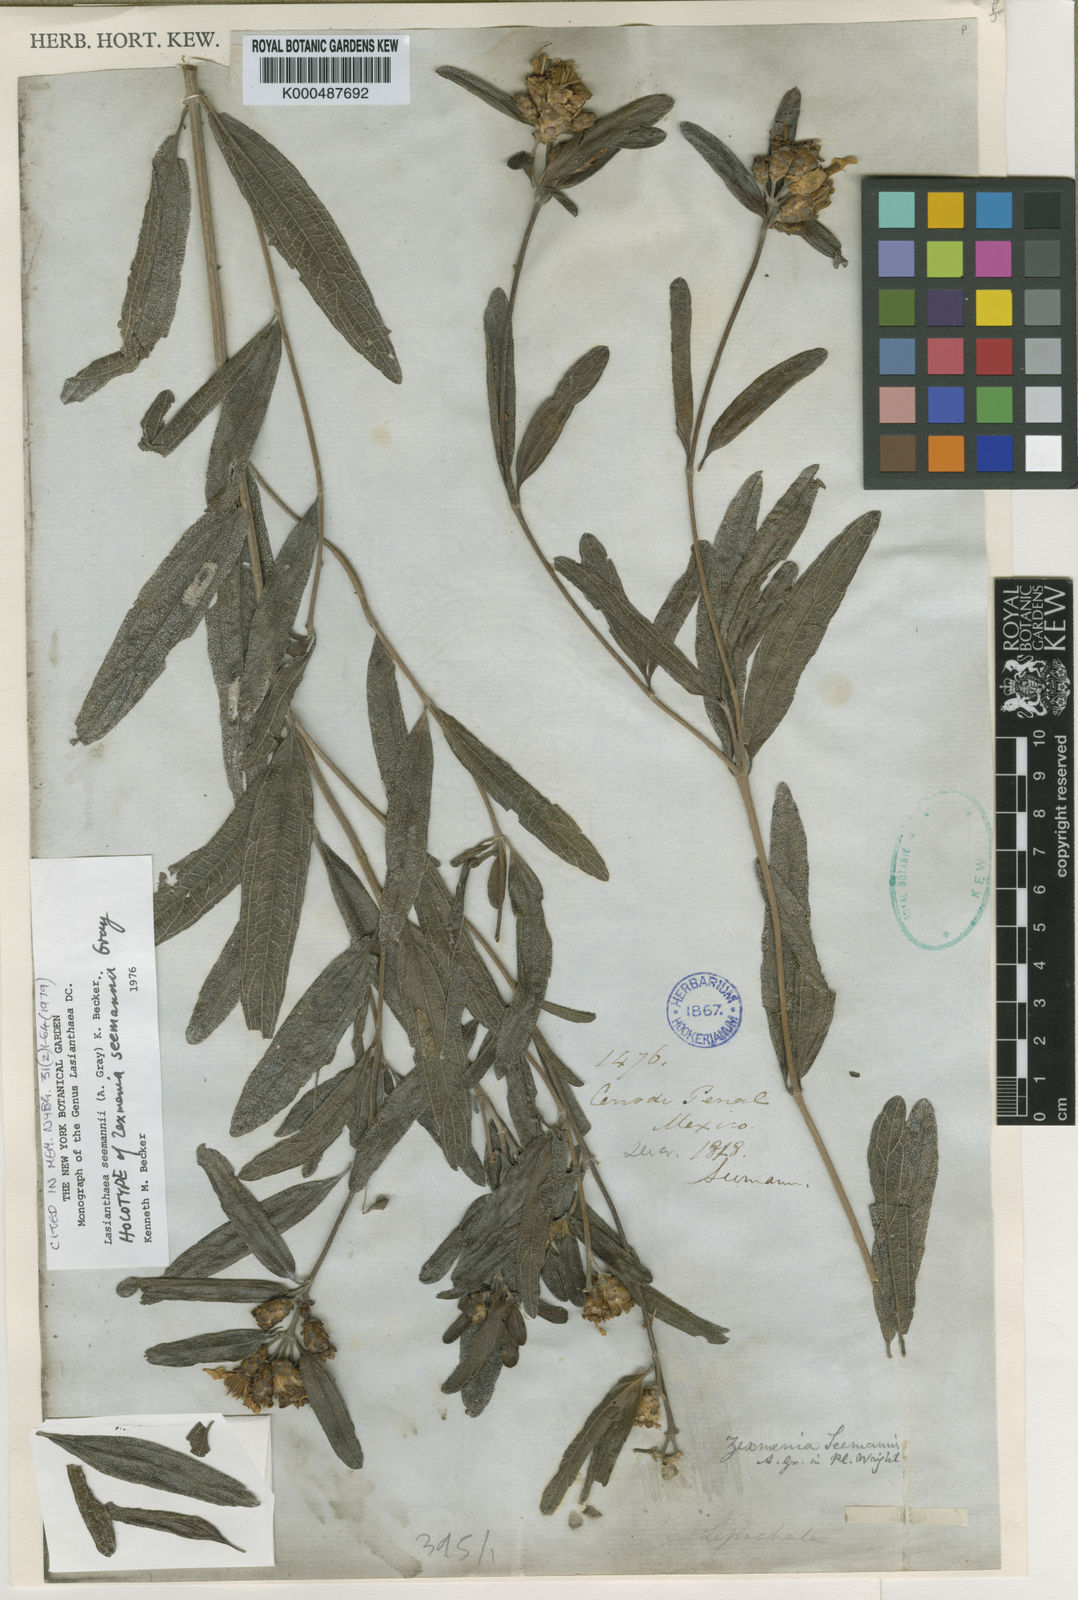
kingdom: Plantae
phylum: Tracheophyta
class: Magnoliopsida
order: Asterales
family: Asteraceae
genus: Lasianthaea
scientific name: Lasianthaea seemannii
